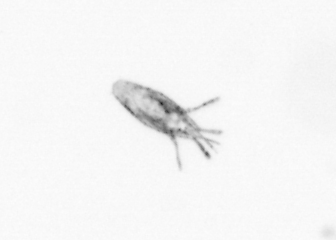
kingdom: Animalia
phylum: Arthropoda
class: Copepoda
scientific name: Copepoda
